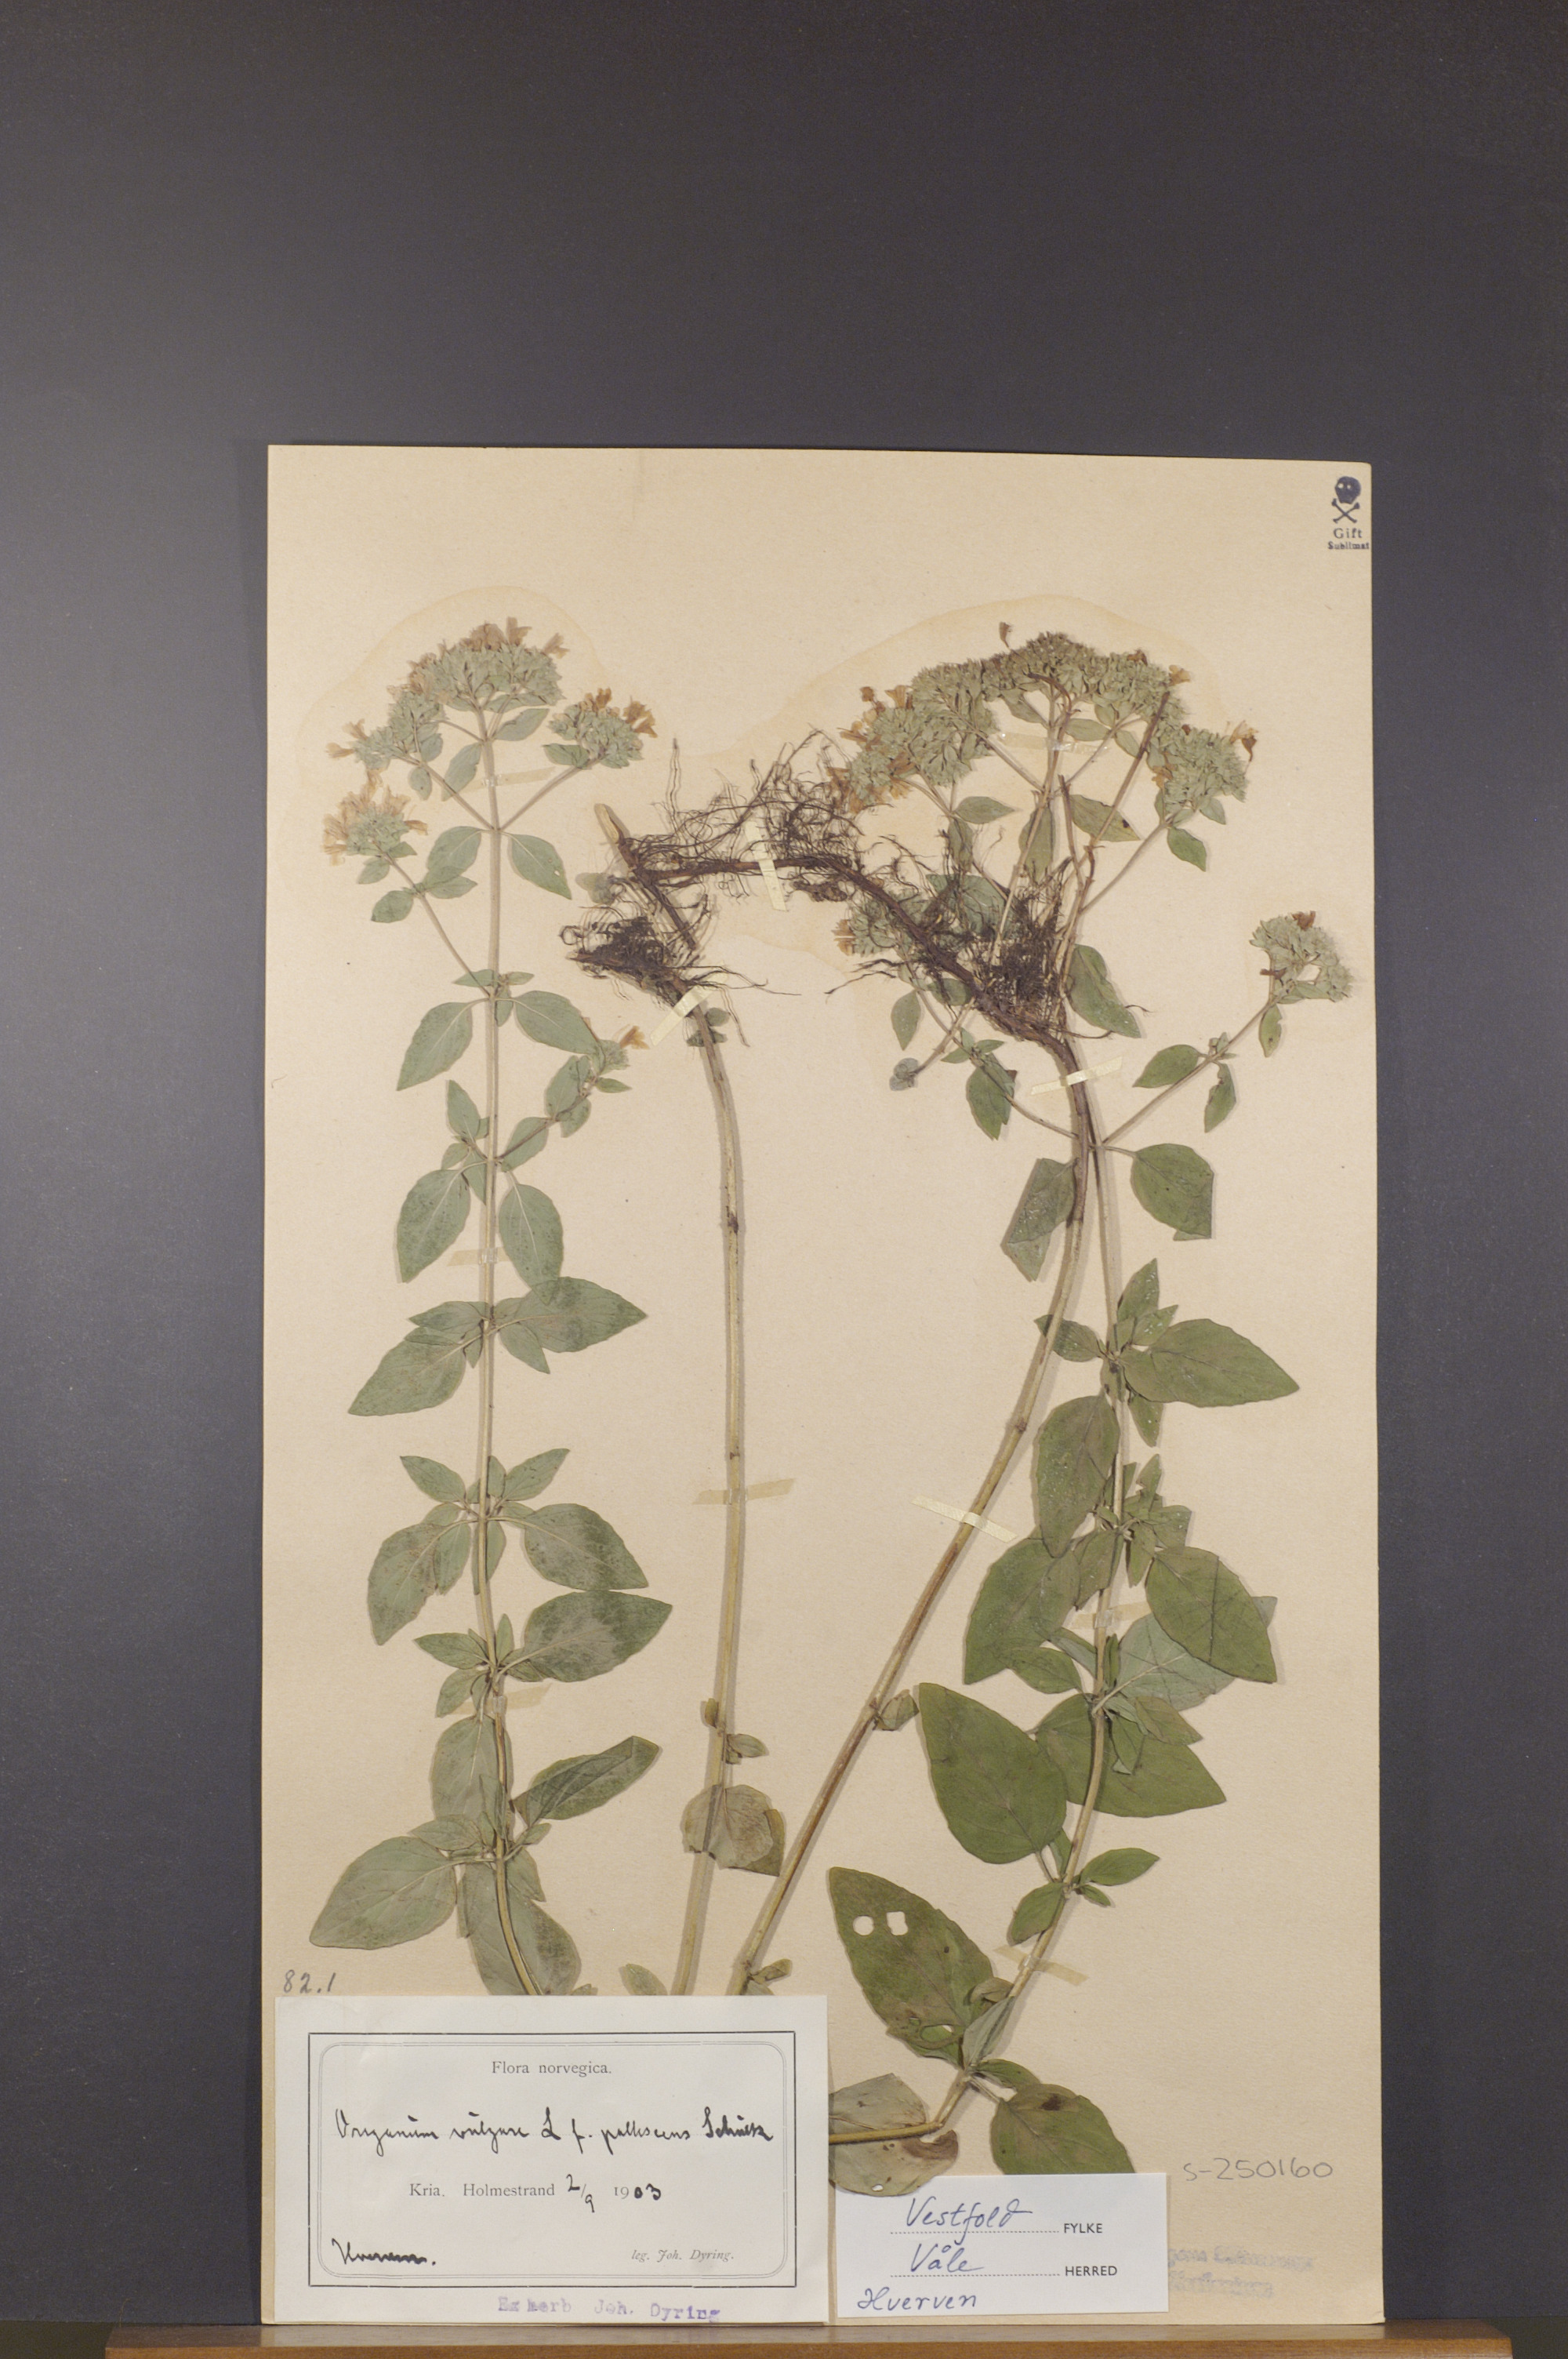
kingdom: Plantae
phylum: Tracheophyta
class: Magnoliopsida
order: Lamiales
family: Lamiaceae
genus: Origanum
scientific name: Origanum vulgare
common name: Wild marjoram
